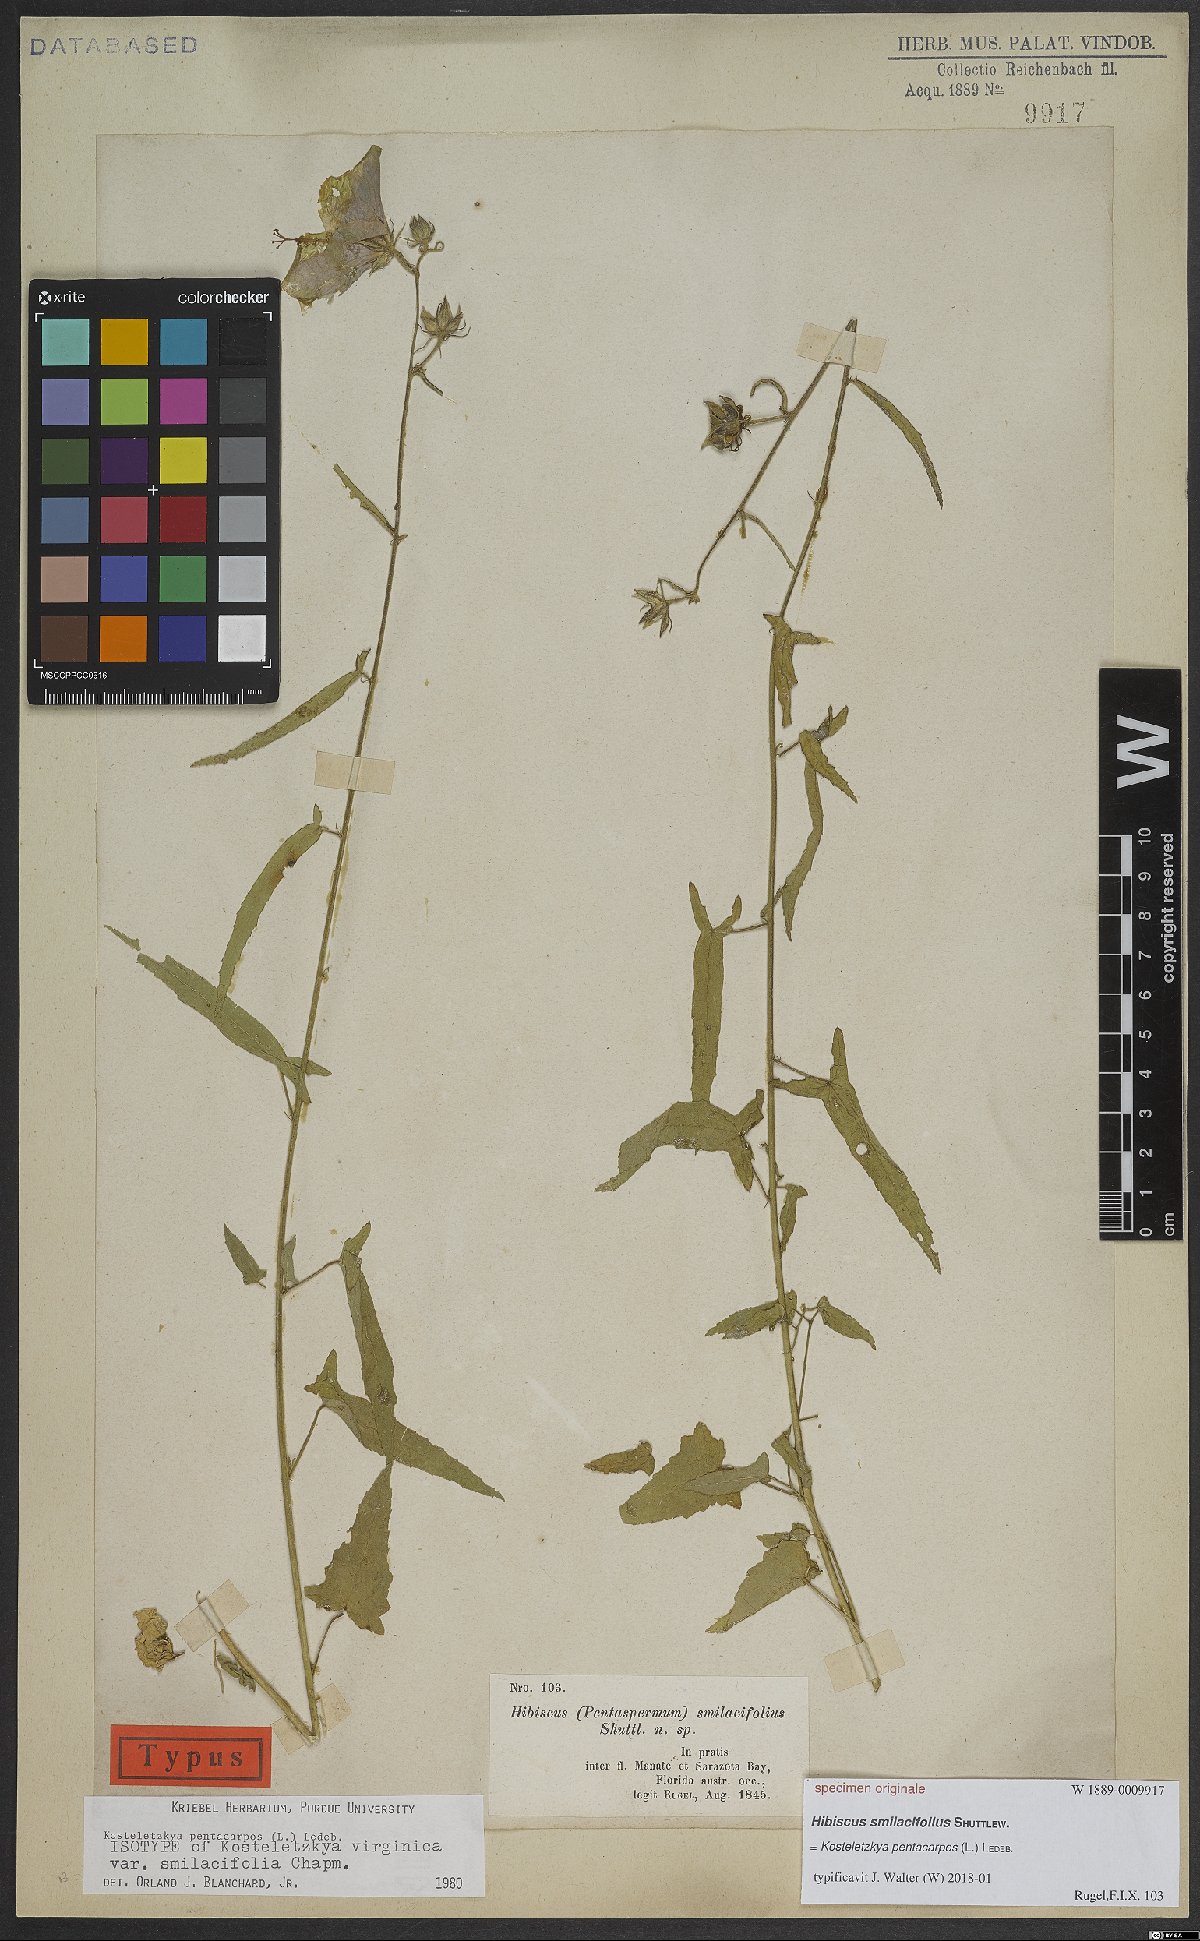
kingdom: Plantae
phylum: Tracheophyta
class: Magnoliopsida
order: Malvales
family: Malvaceae
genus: Kosteletzkya
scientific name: Kosteletzkya pentacarpos
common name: Virginia saltmarsh mallow
